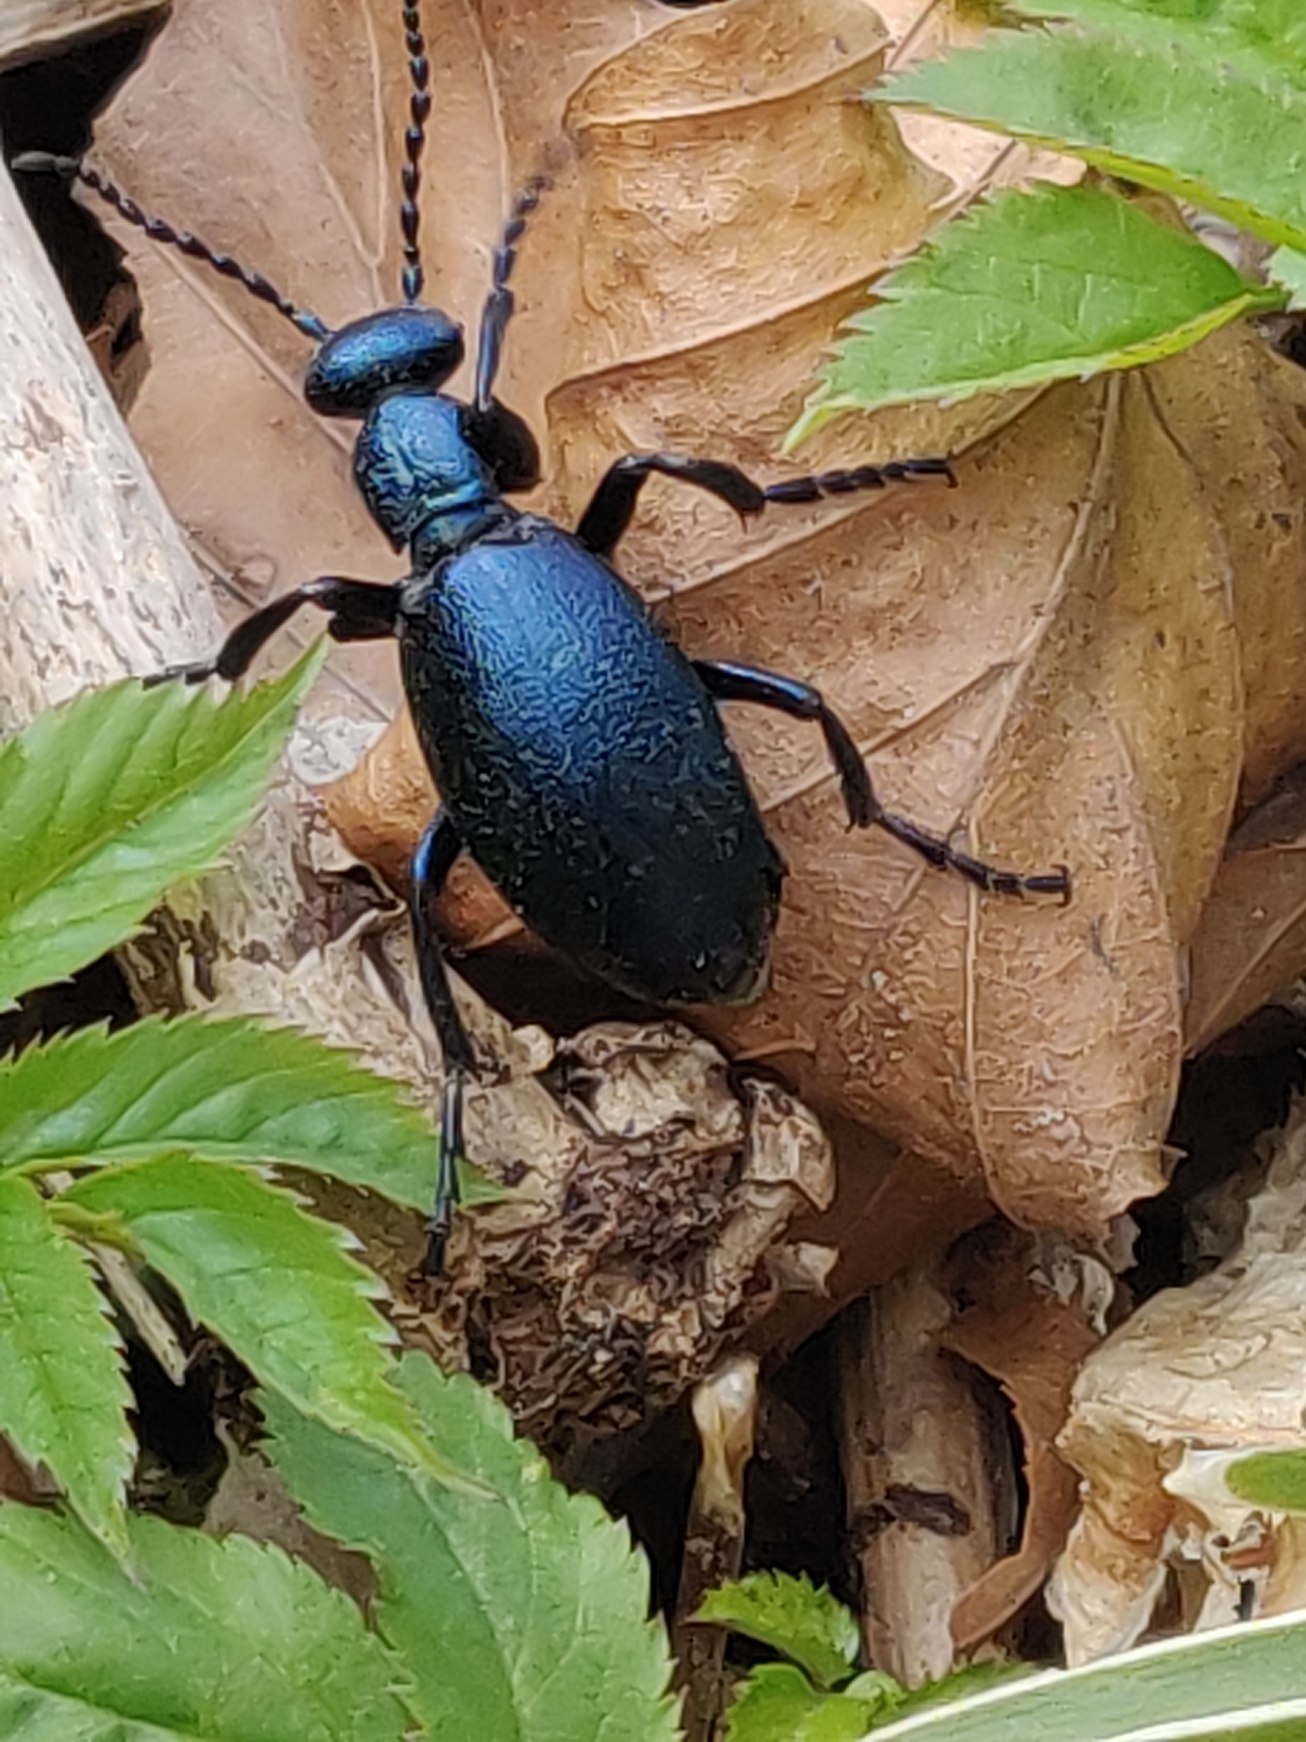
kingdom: Animalia
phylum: Arthropoda
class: Insecta
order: Coleoptera
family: Meloidae
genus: Meloe
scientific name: Meloe violaceus
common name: Blå oliebille
